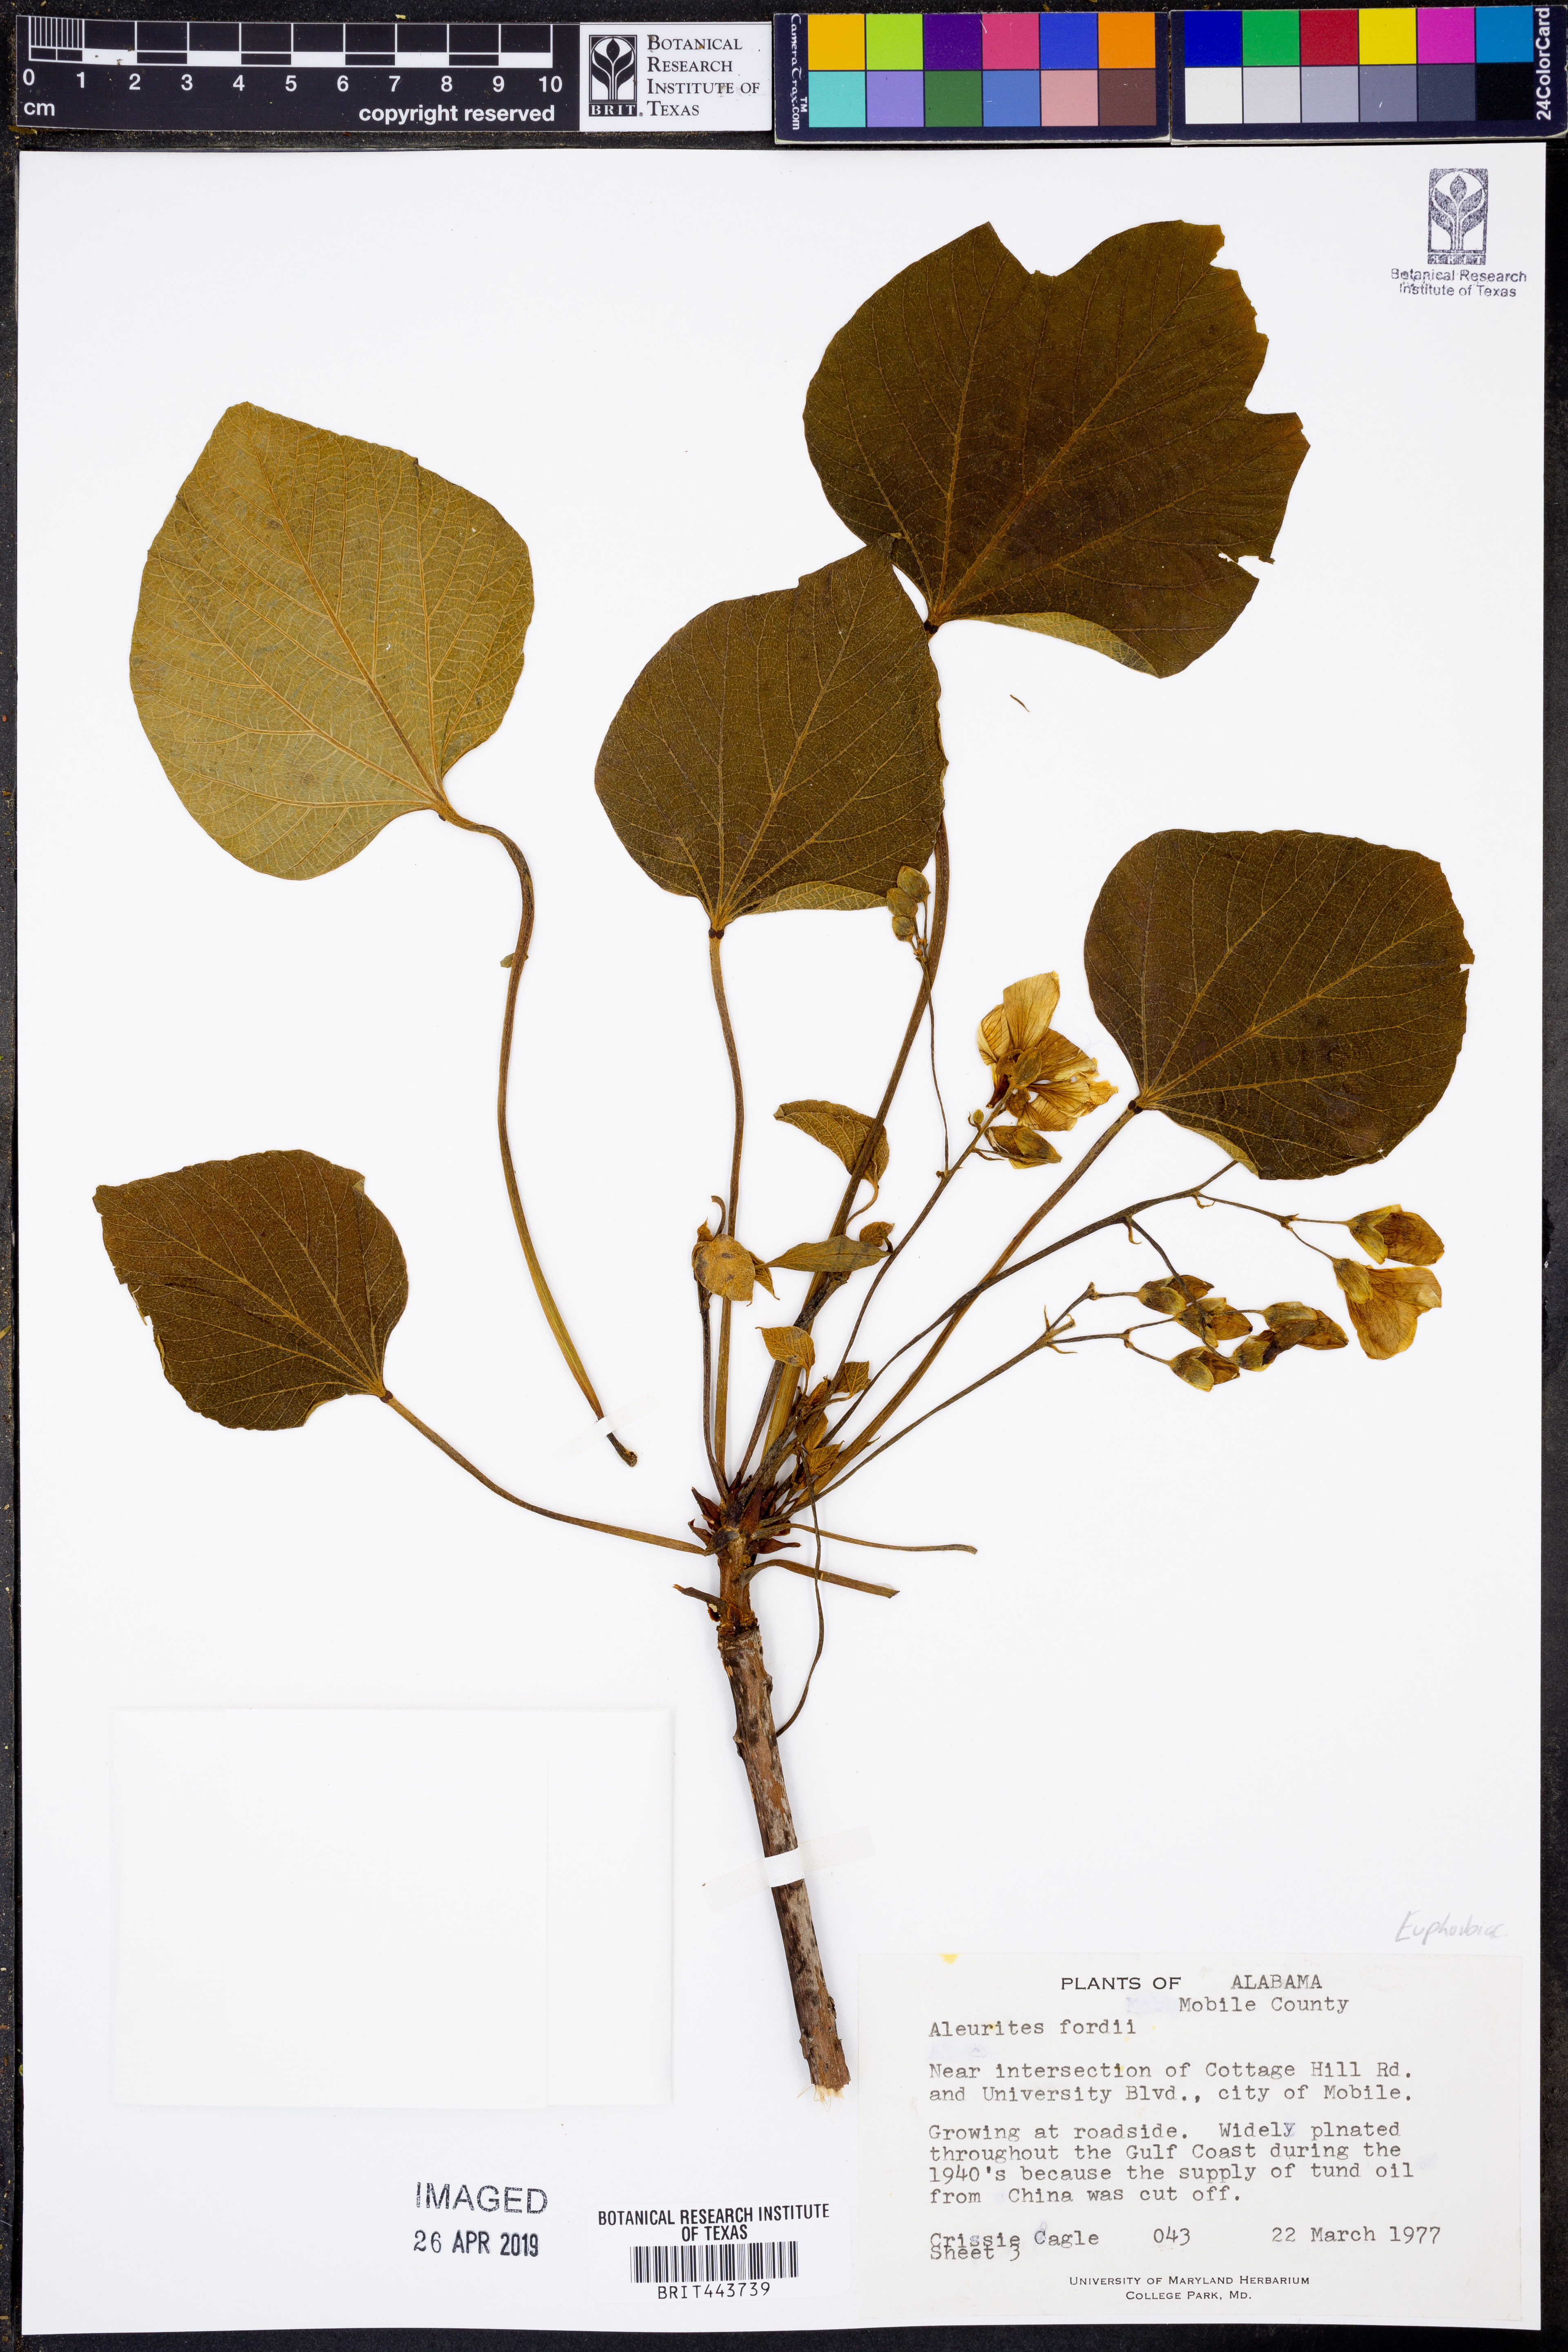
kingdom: Plantae
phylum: Tracheophyta
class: Magnoliopsida
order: Malpighiales
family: Euphorbiaceae
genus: Vernicia
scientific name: Vernicia fordii
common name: Tungoil tree
